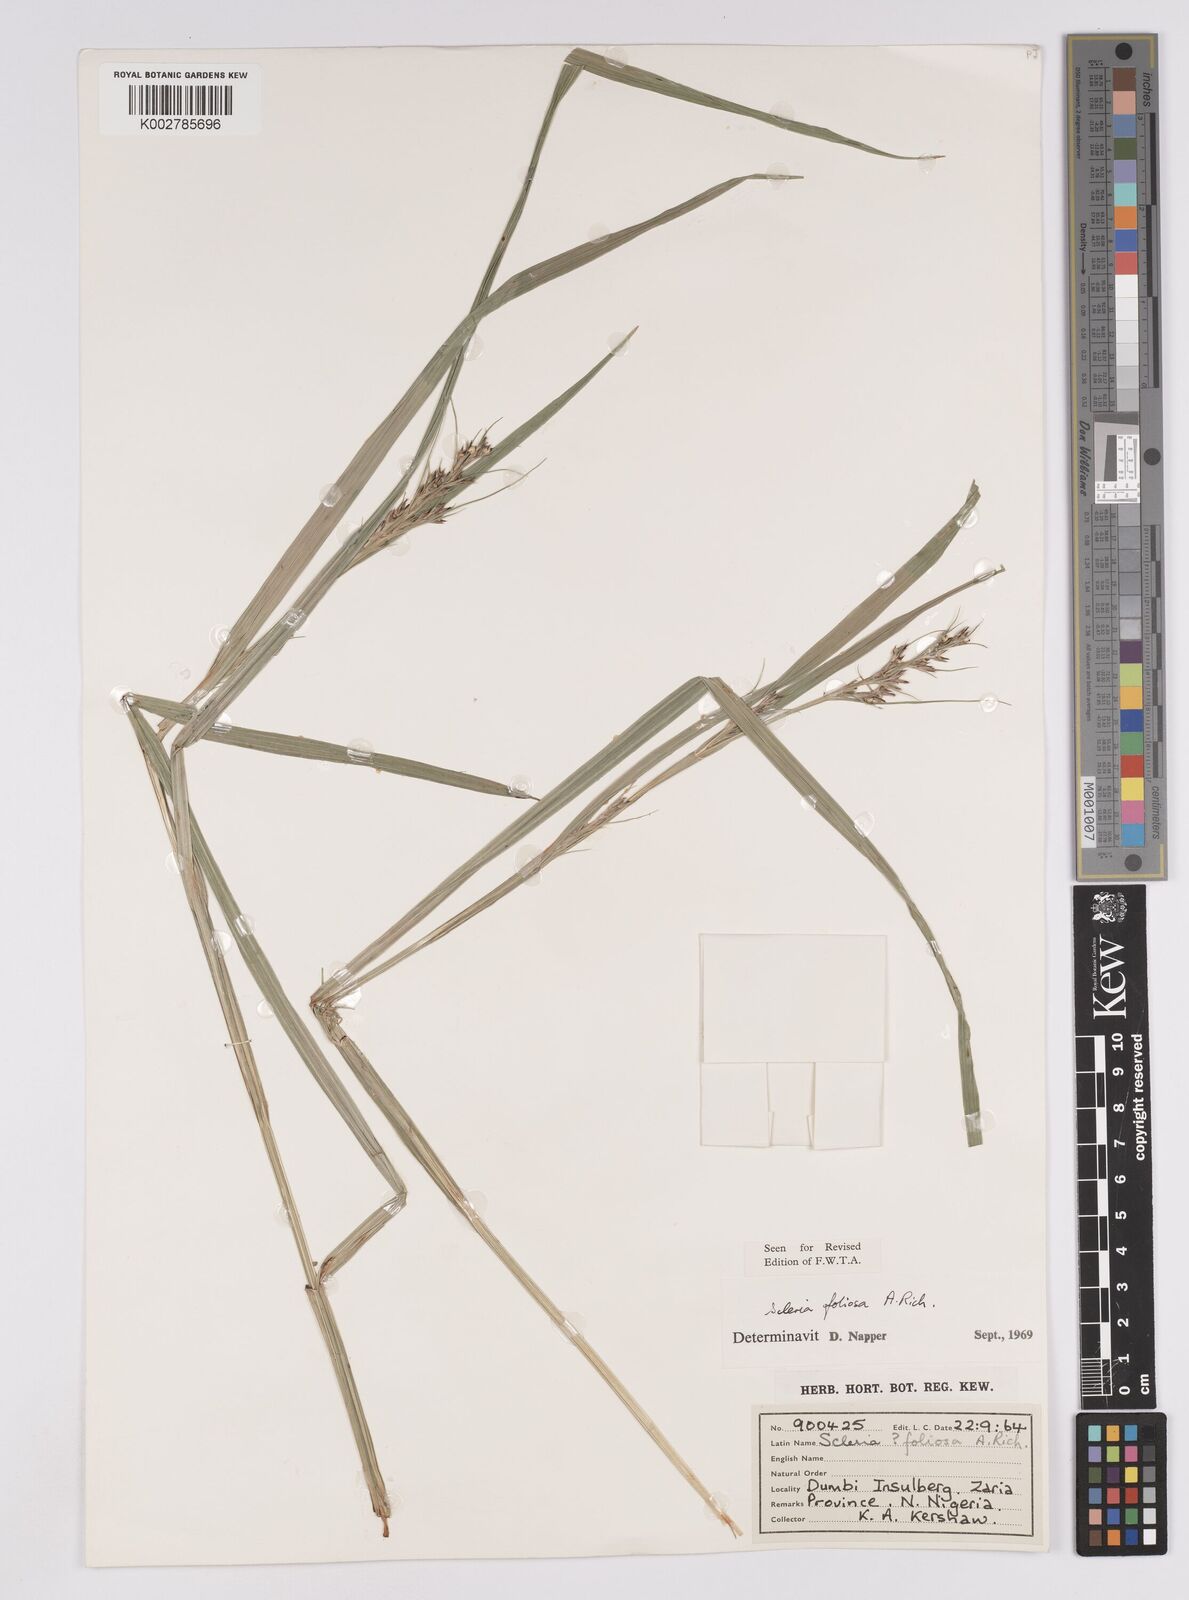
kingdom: Plantae
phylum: Tracheophyta
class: Liliopsida
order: Poales
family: Cyperaceae
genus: Scleria
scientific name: Scleria foliosa
